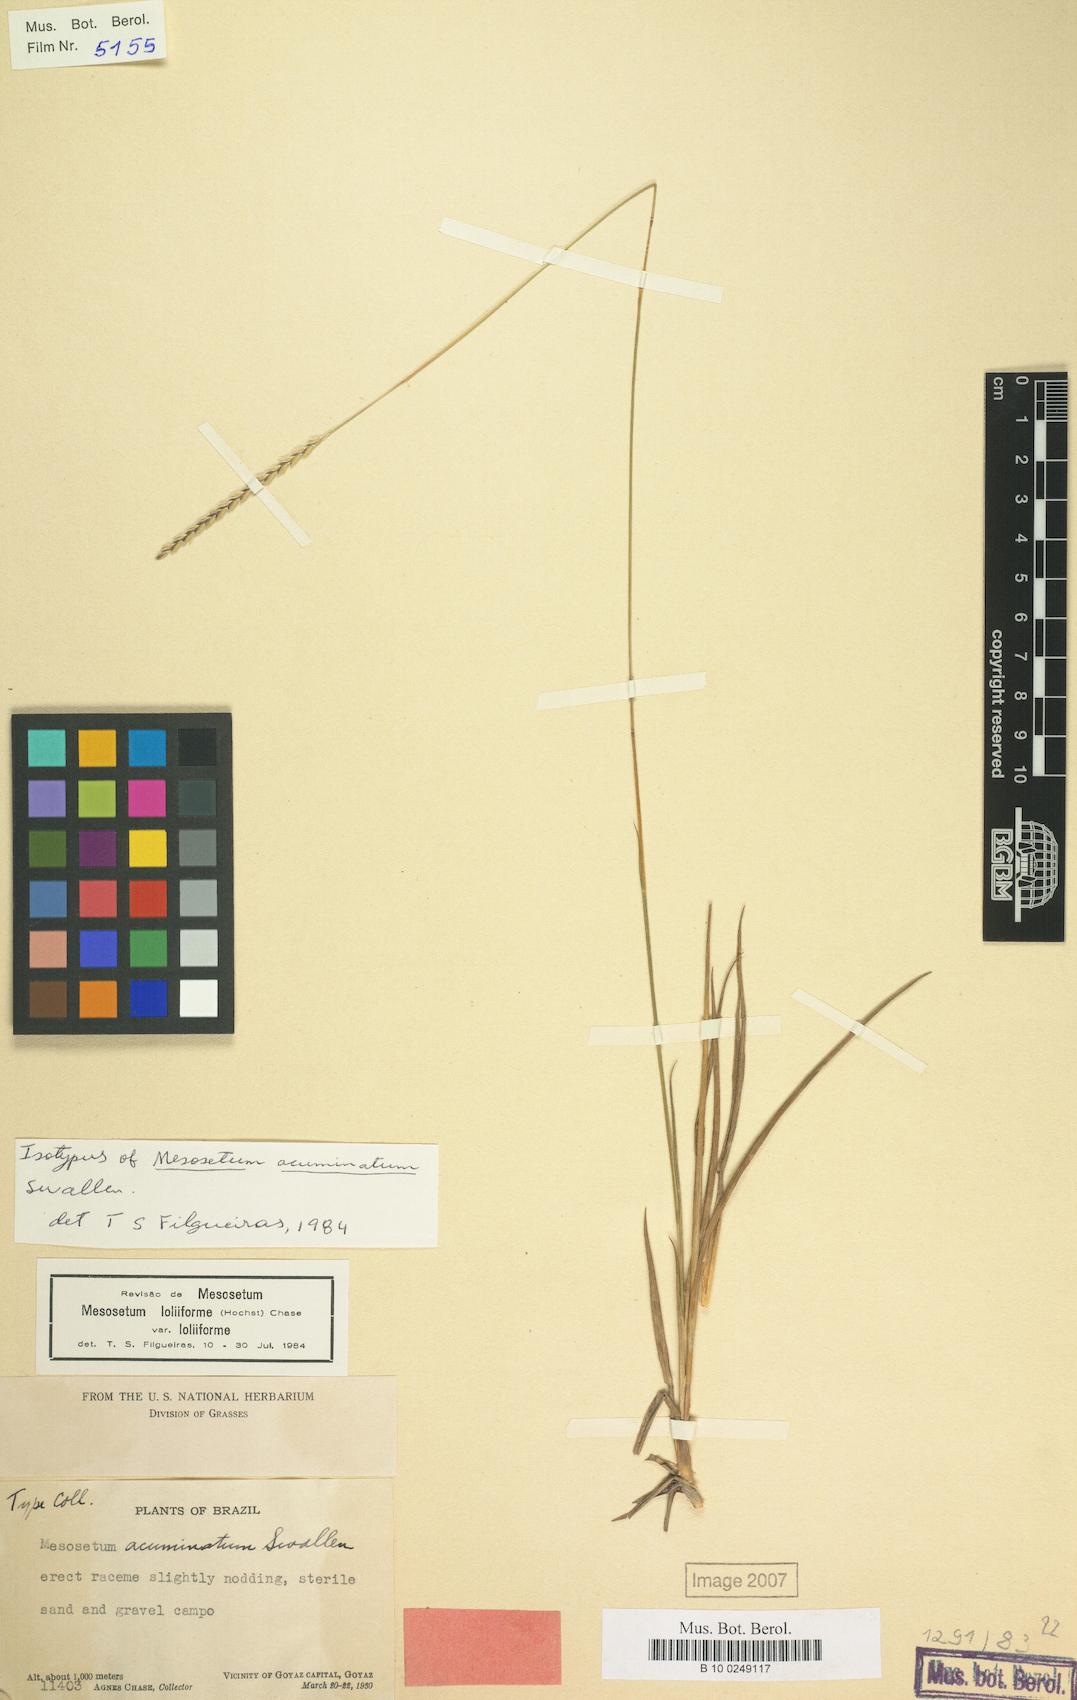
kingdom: Plantae
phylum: Tracheophyta
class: Liliopsida
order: Poales
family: Poaceae
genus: Mesosetum
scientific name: Mesosetum loliiforme
